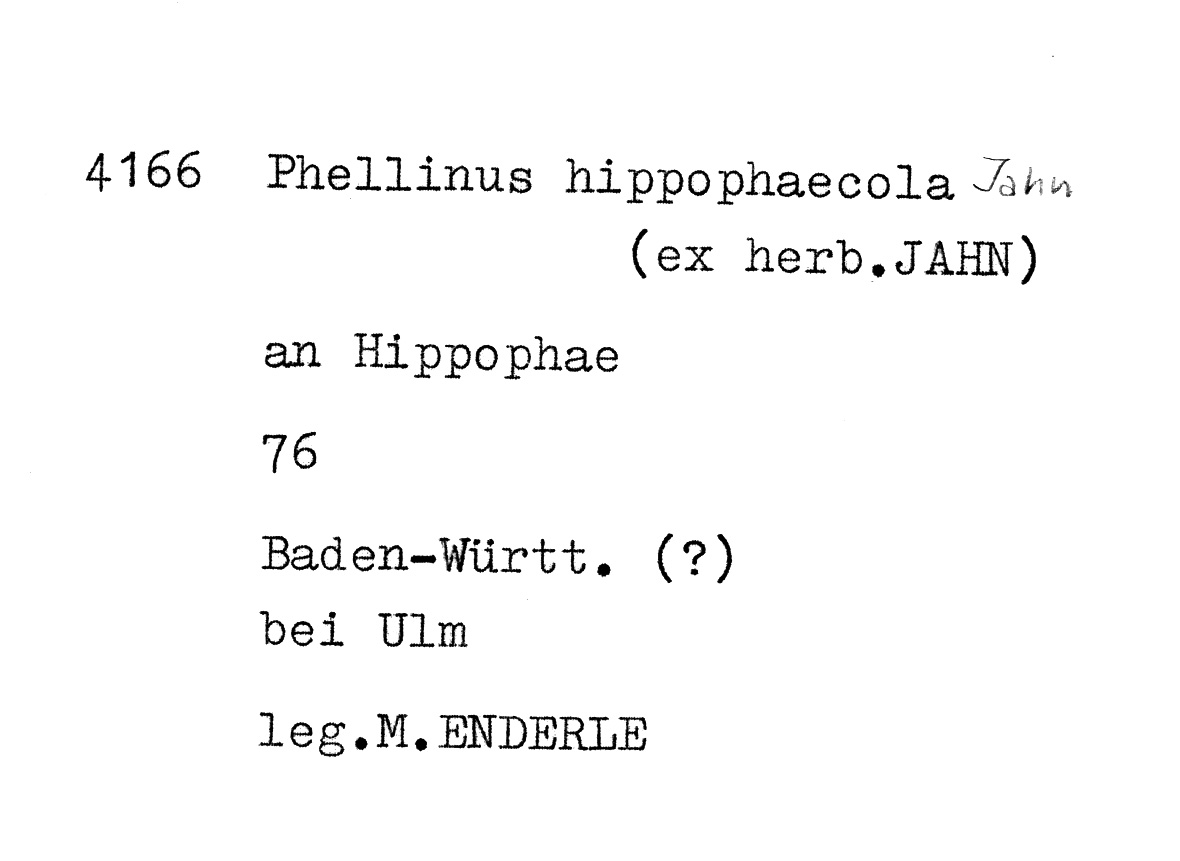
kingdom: Fungi
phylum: Basidiomycota
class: Agaricomycetes
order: Hymenochaetales
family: Hymenochaetaceae
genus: Fomitiporia
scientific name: Fomitiporia hippophaeicola
